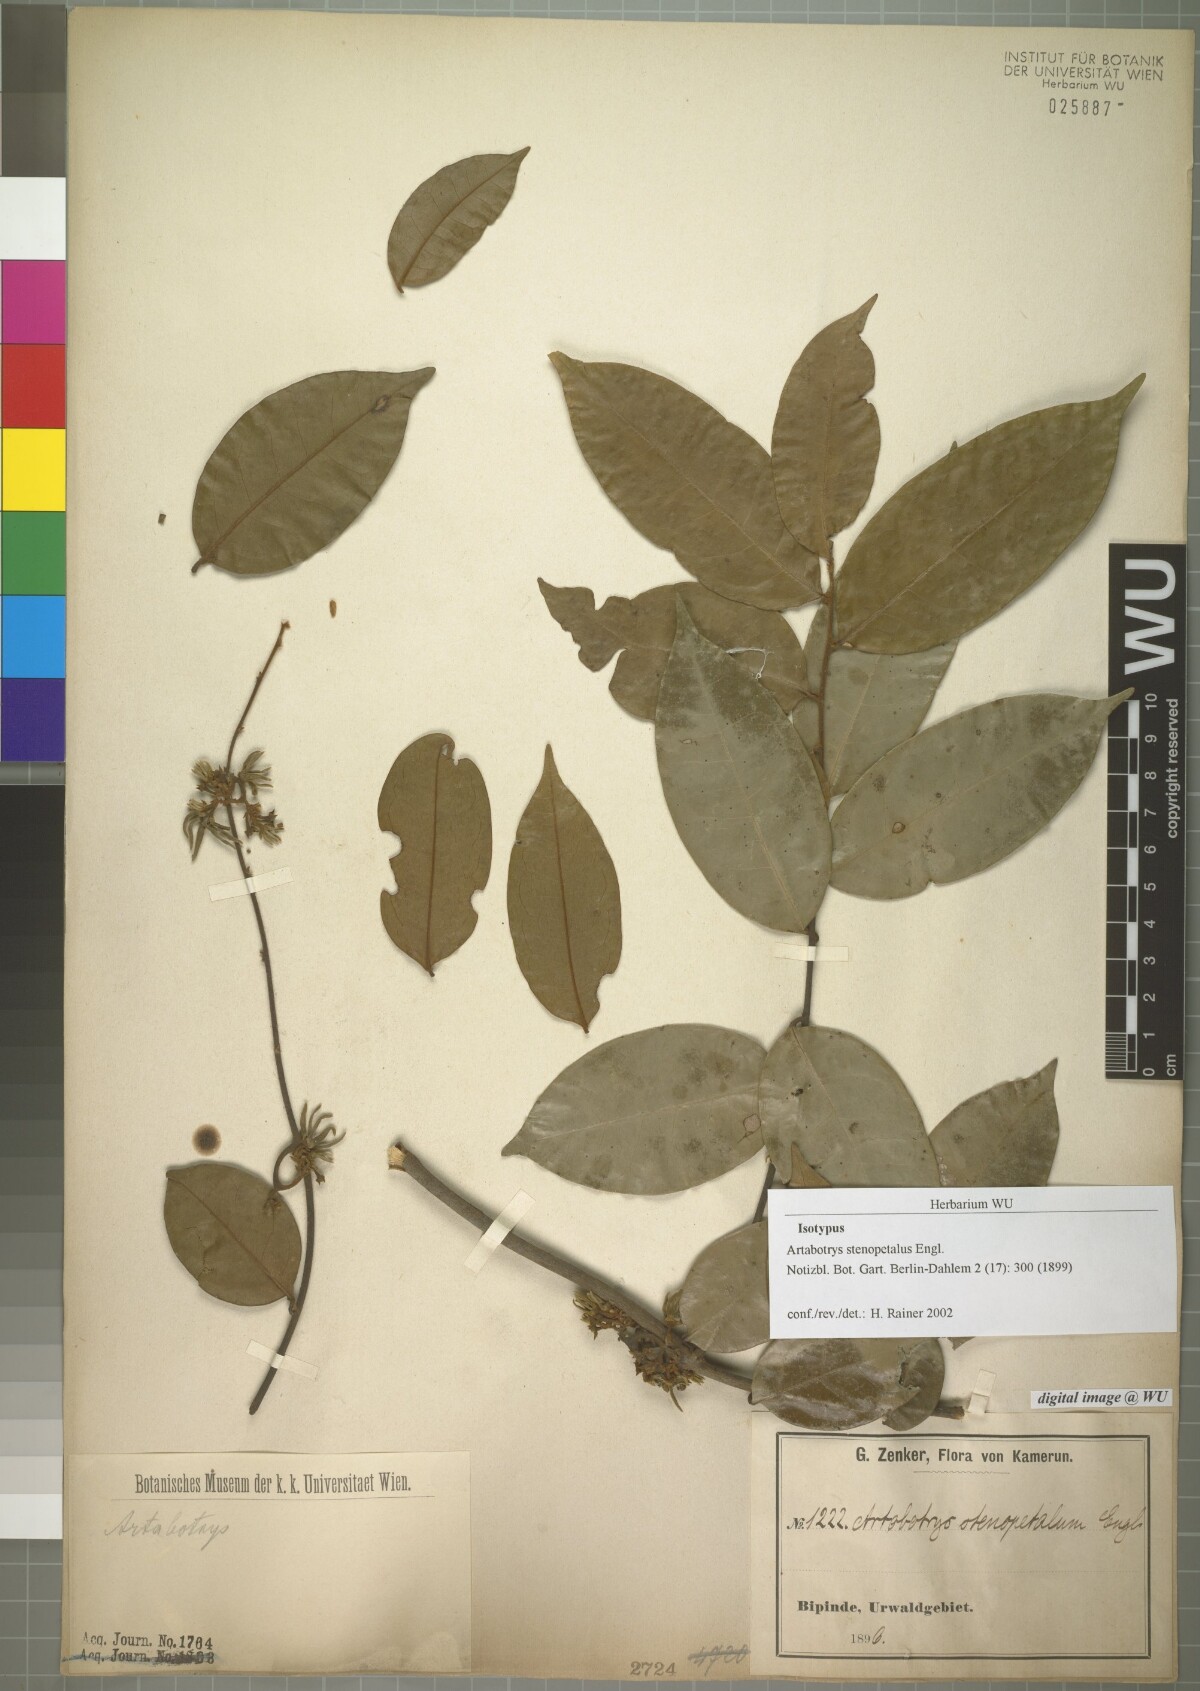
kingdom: Plantae
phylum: Tracheophyta
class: Magnoliopsida
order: Magnoliales
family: Annonaceae
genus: Artabotrys
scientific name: Artabotrys stenopetalus
